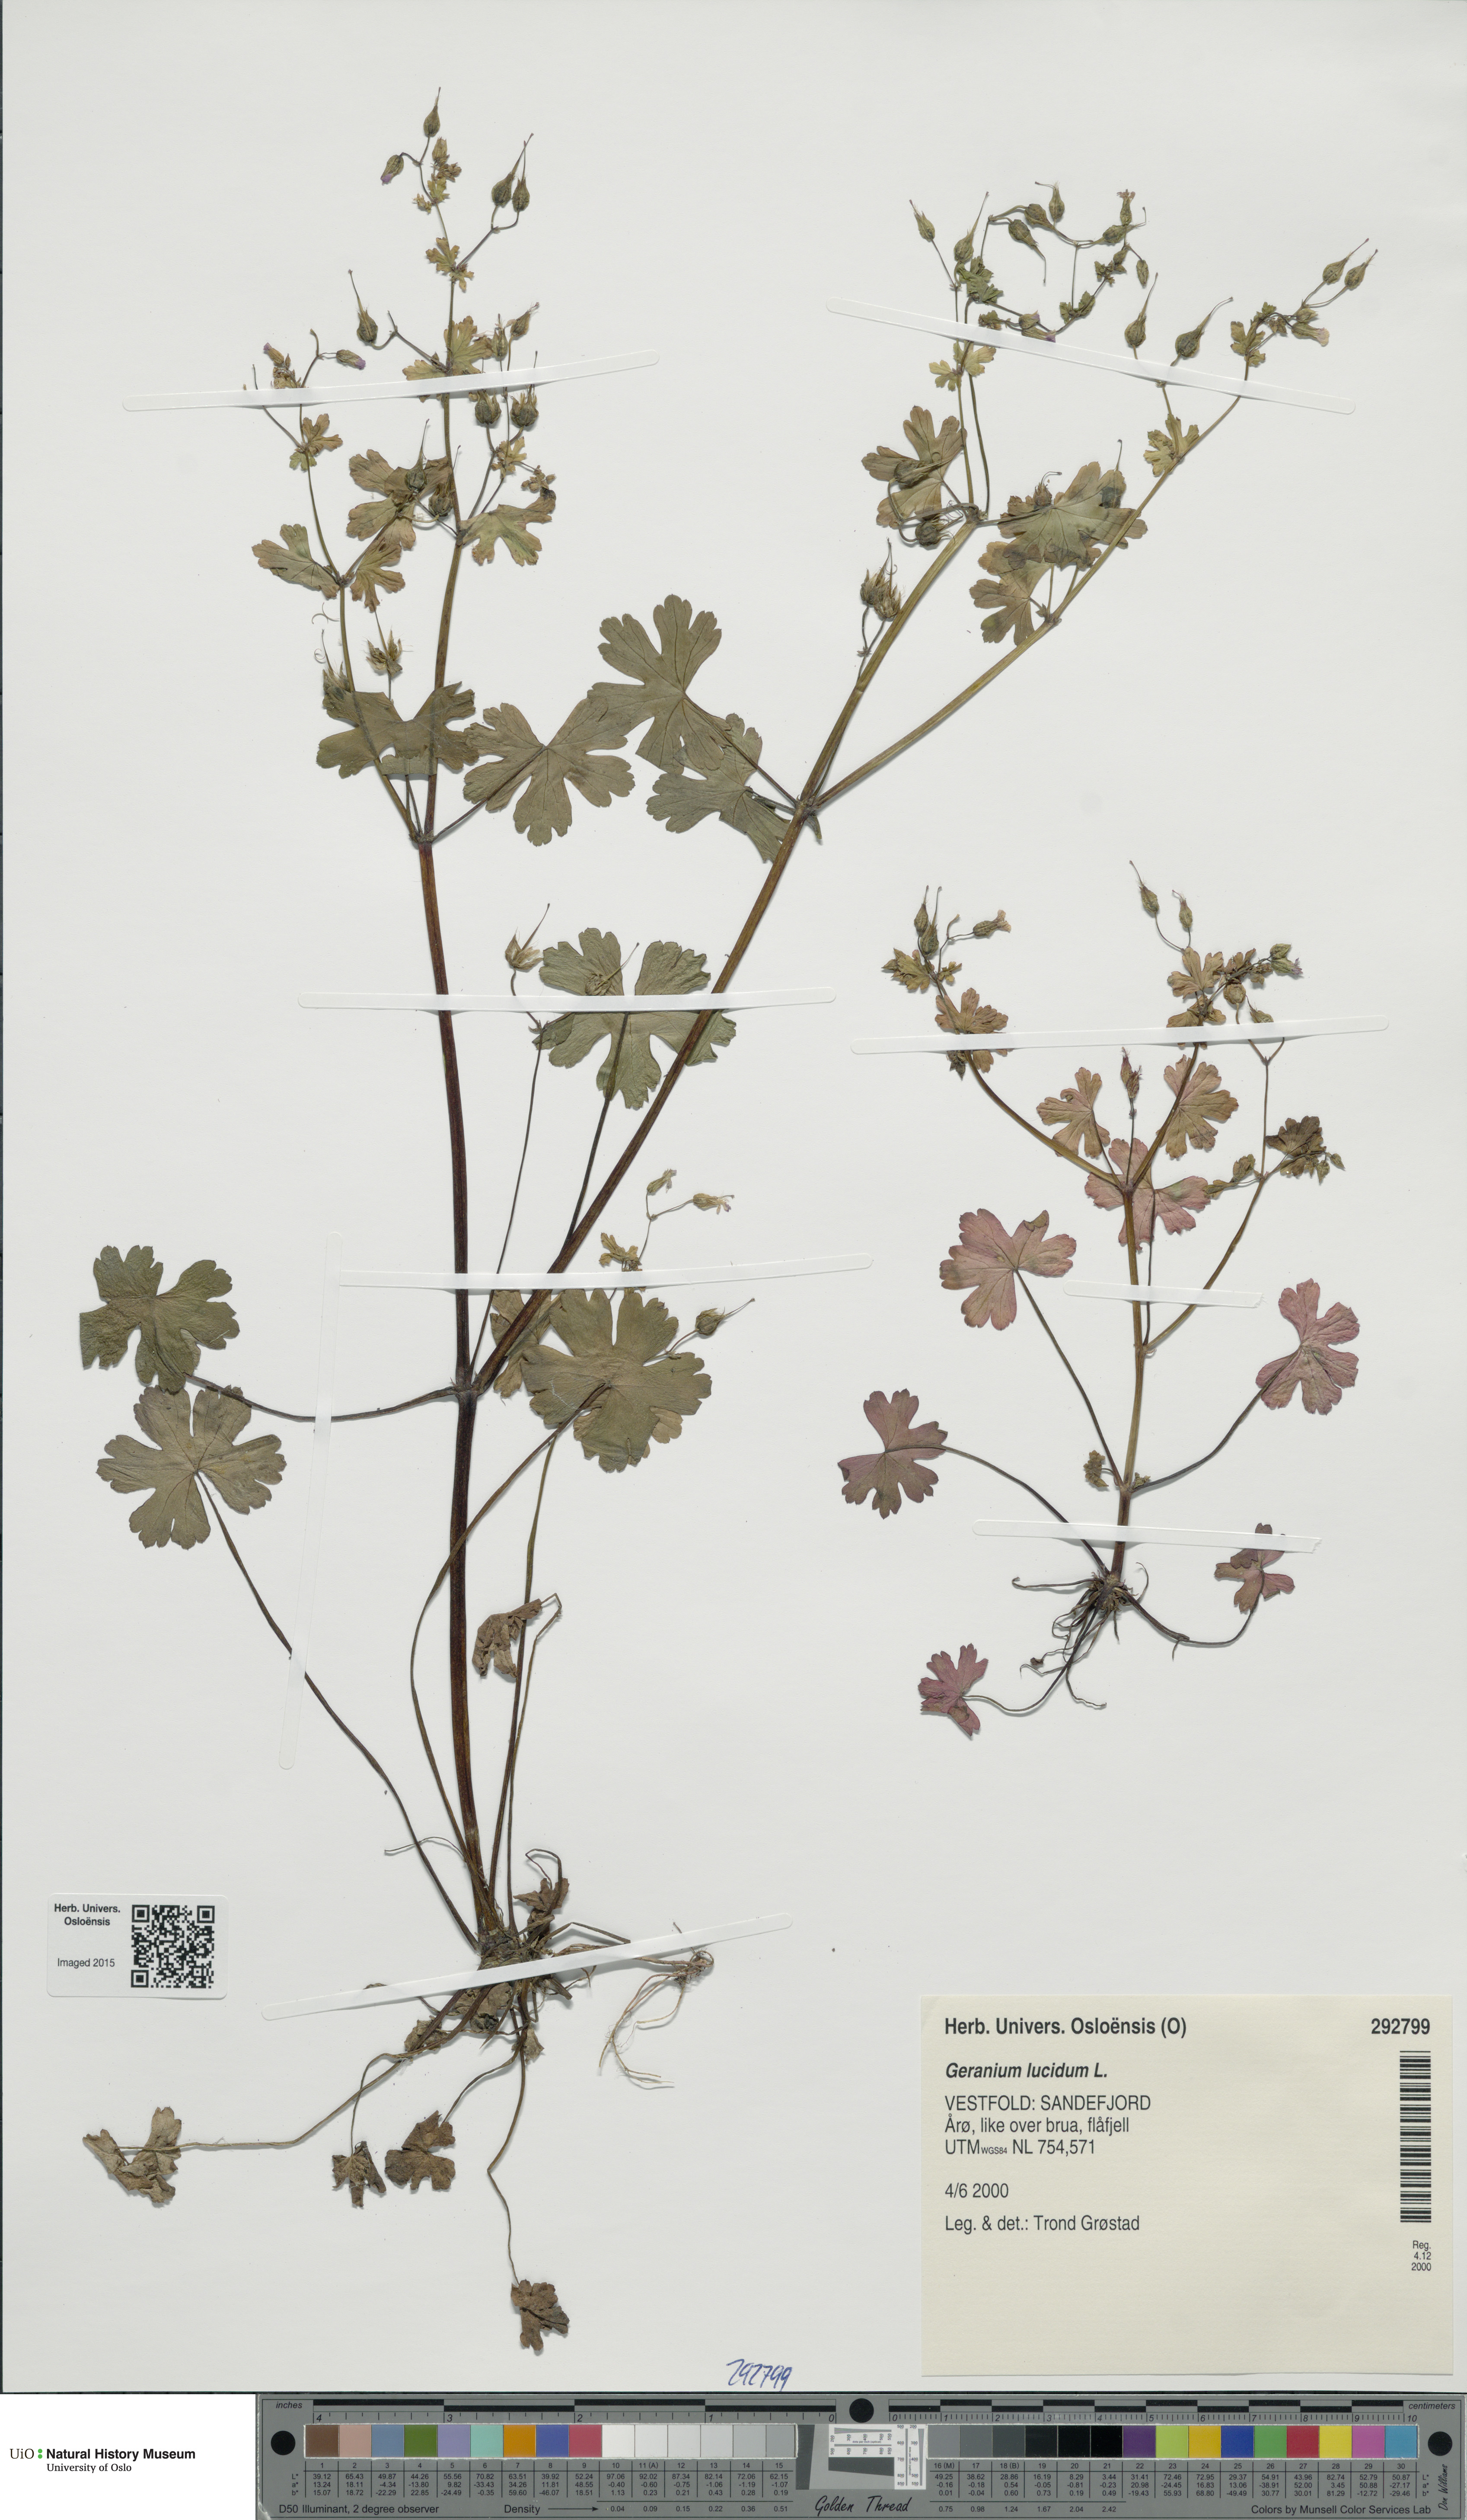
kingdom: Plantae
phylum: Tracheophyta
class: Magnoliopsida
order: Geraniales
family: Geraniaceae
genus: Geranium
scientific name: Geranium lucidum
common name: Shining crane's-bill
